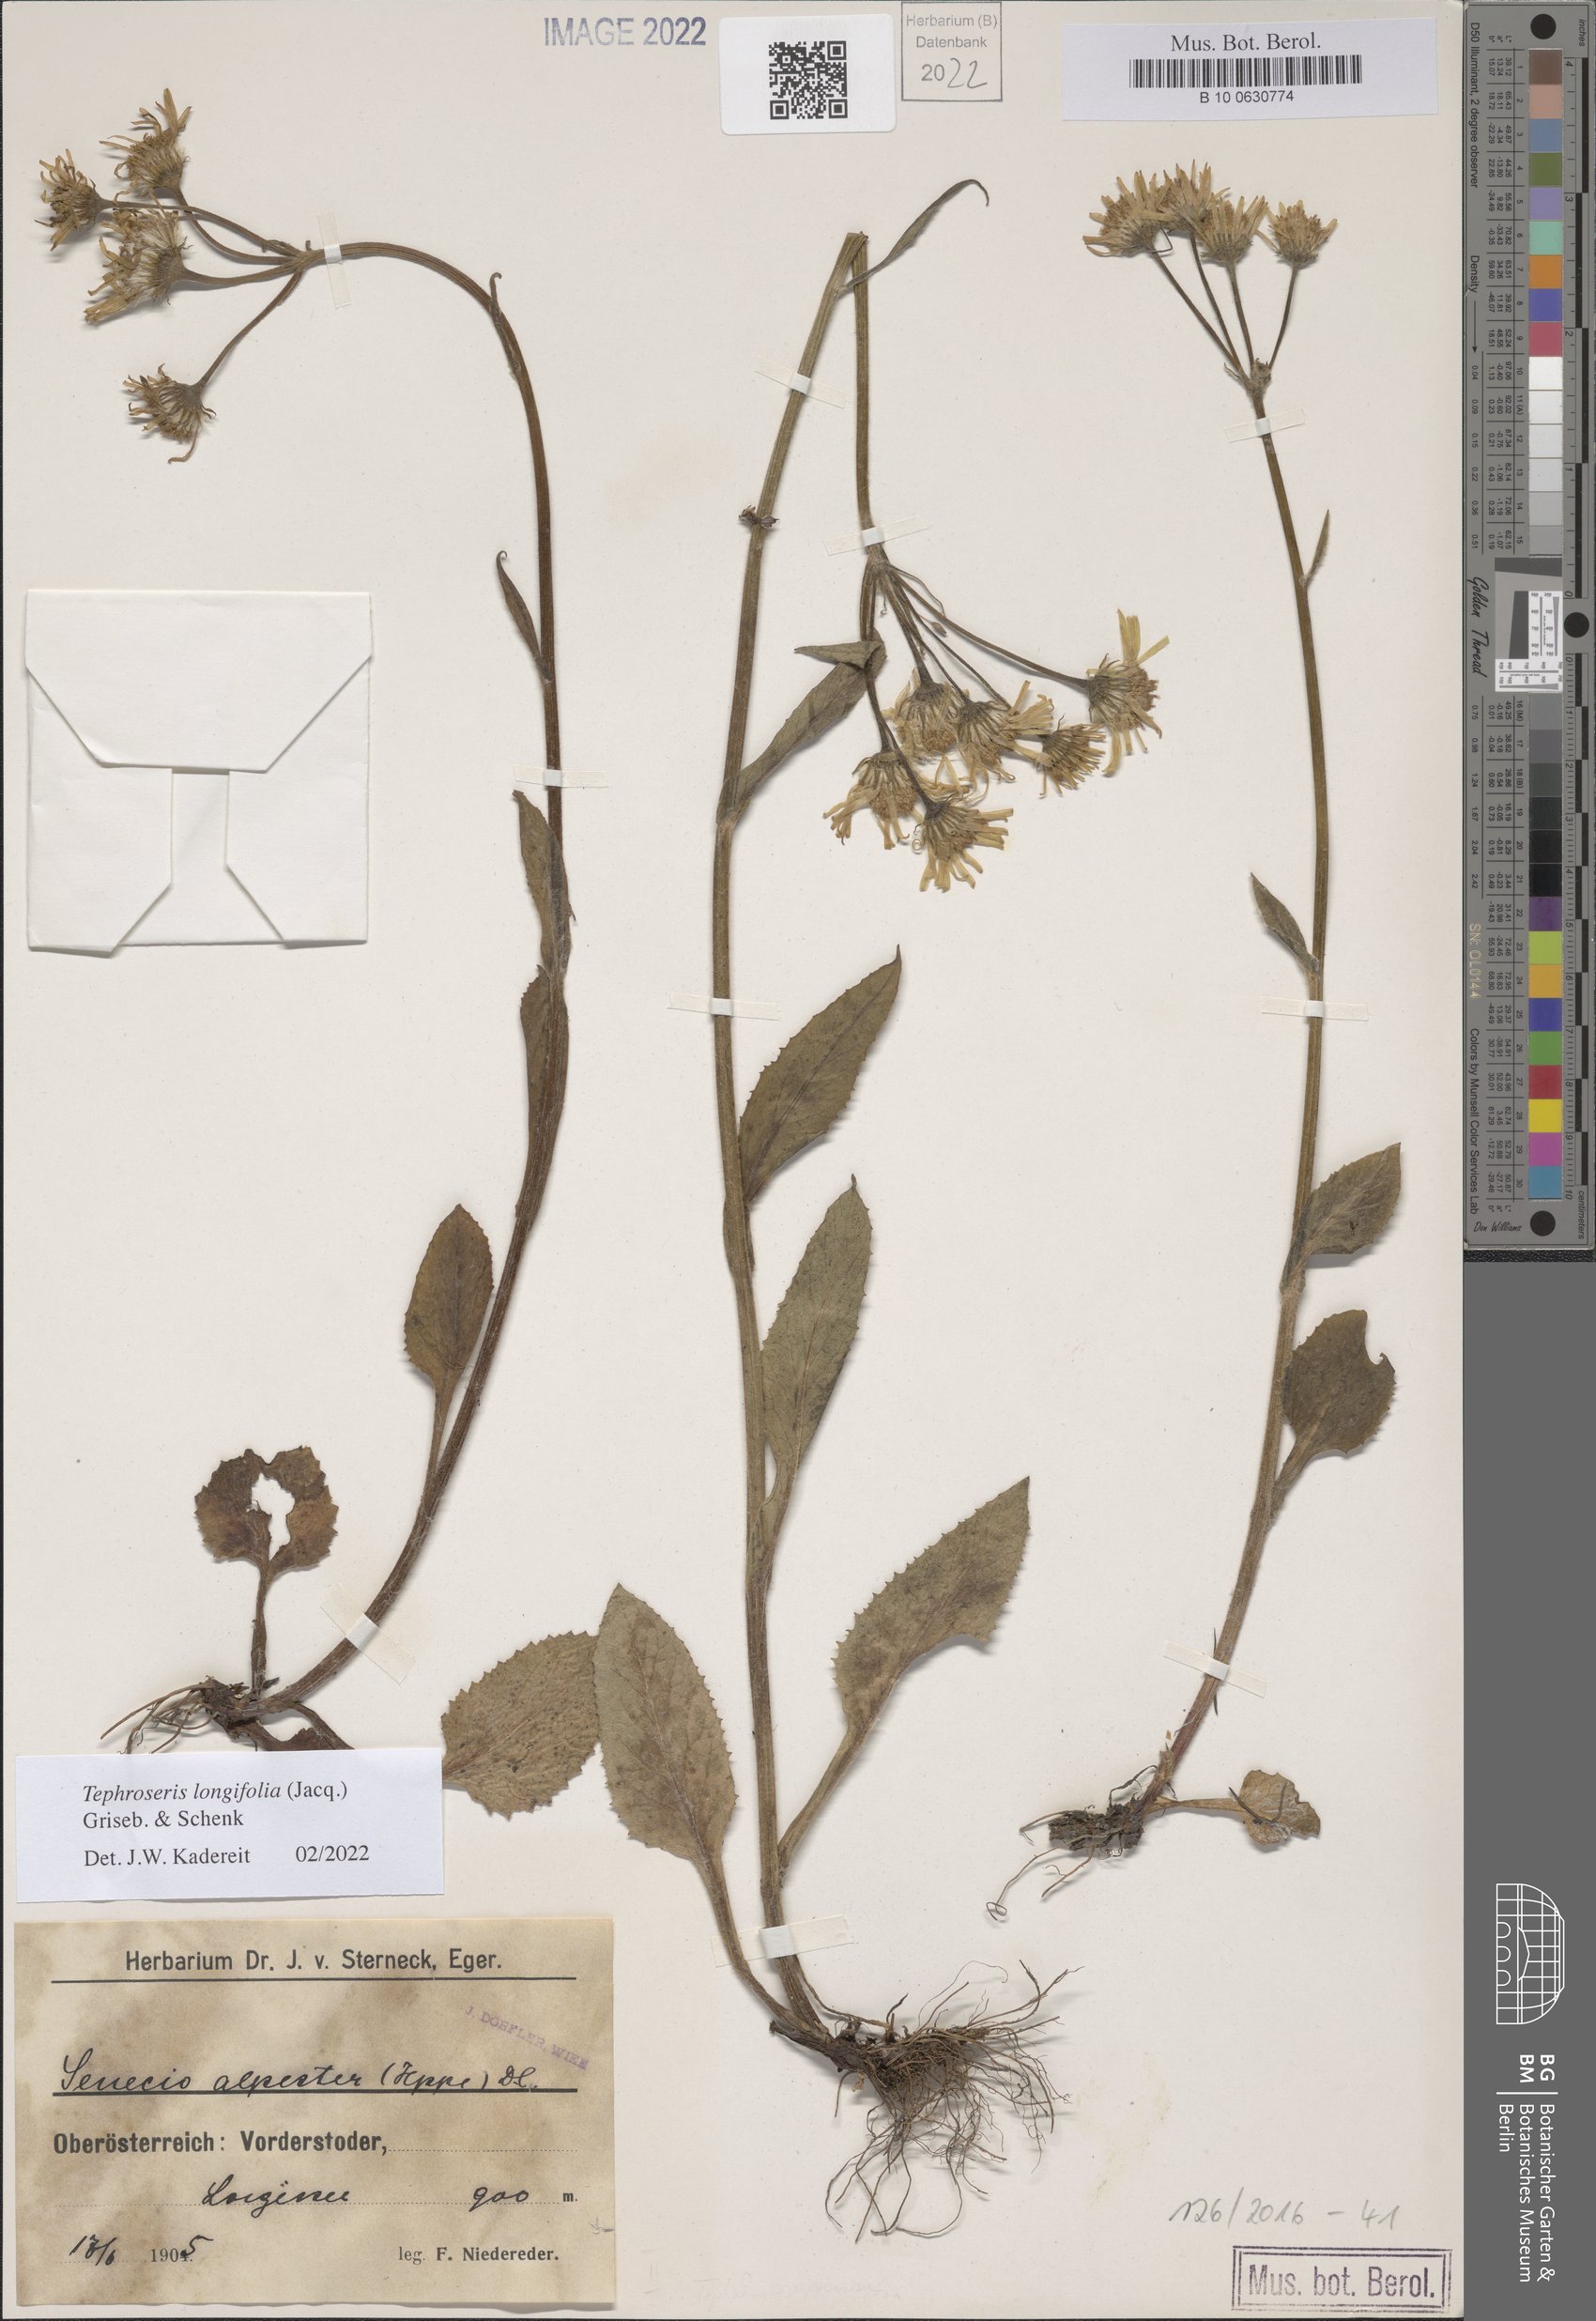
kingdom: Plantae
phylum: Tracheophyta
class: Magnoliopsida
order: Asterales
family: Asteraceae
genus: Tephroseris
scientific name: Tephroseris longifolia
